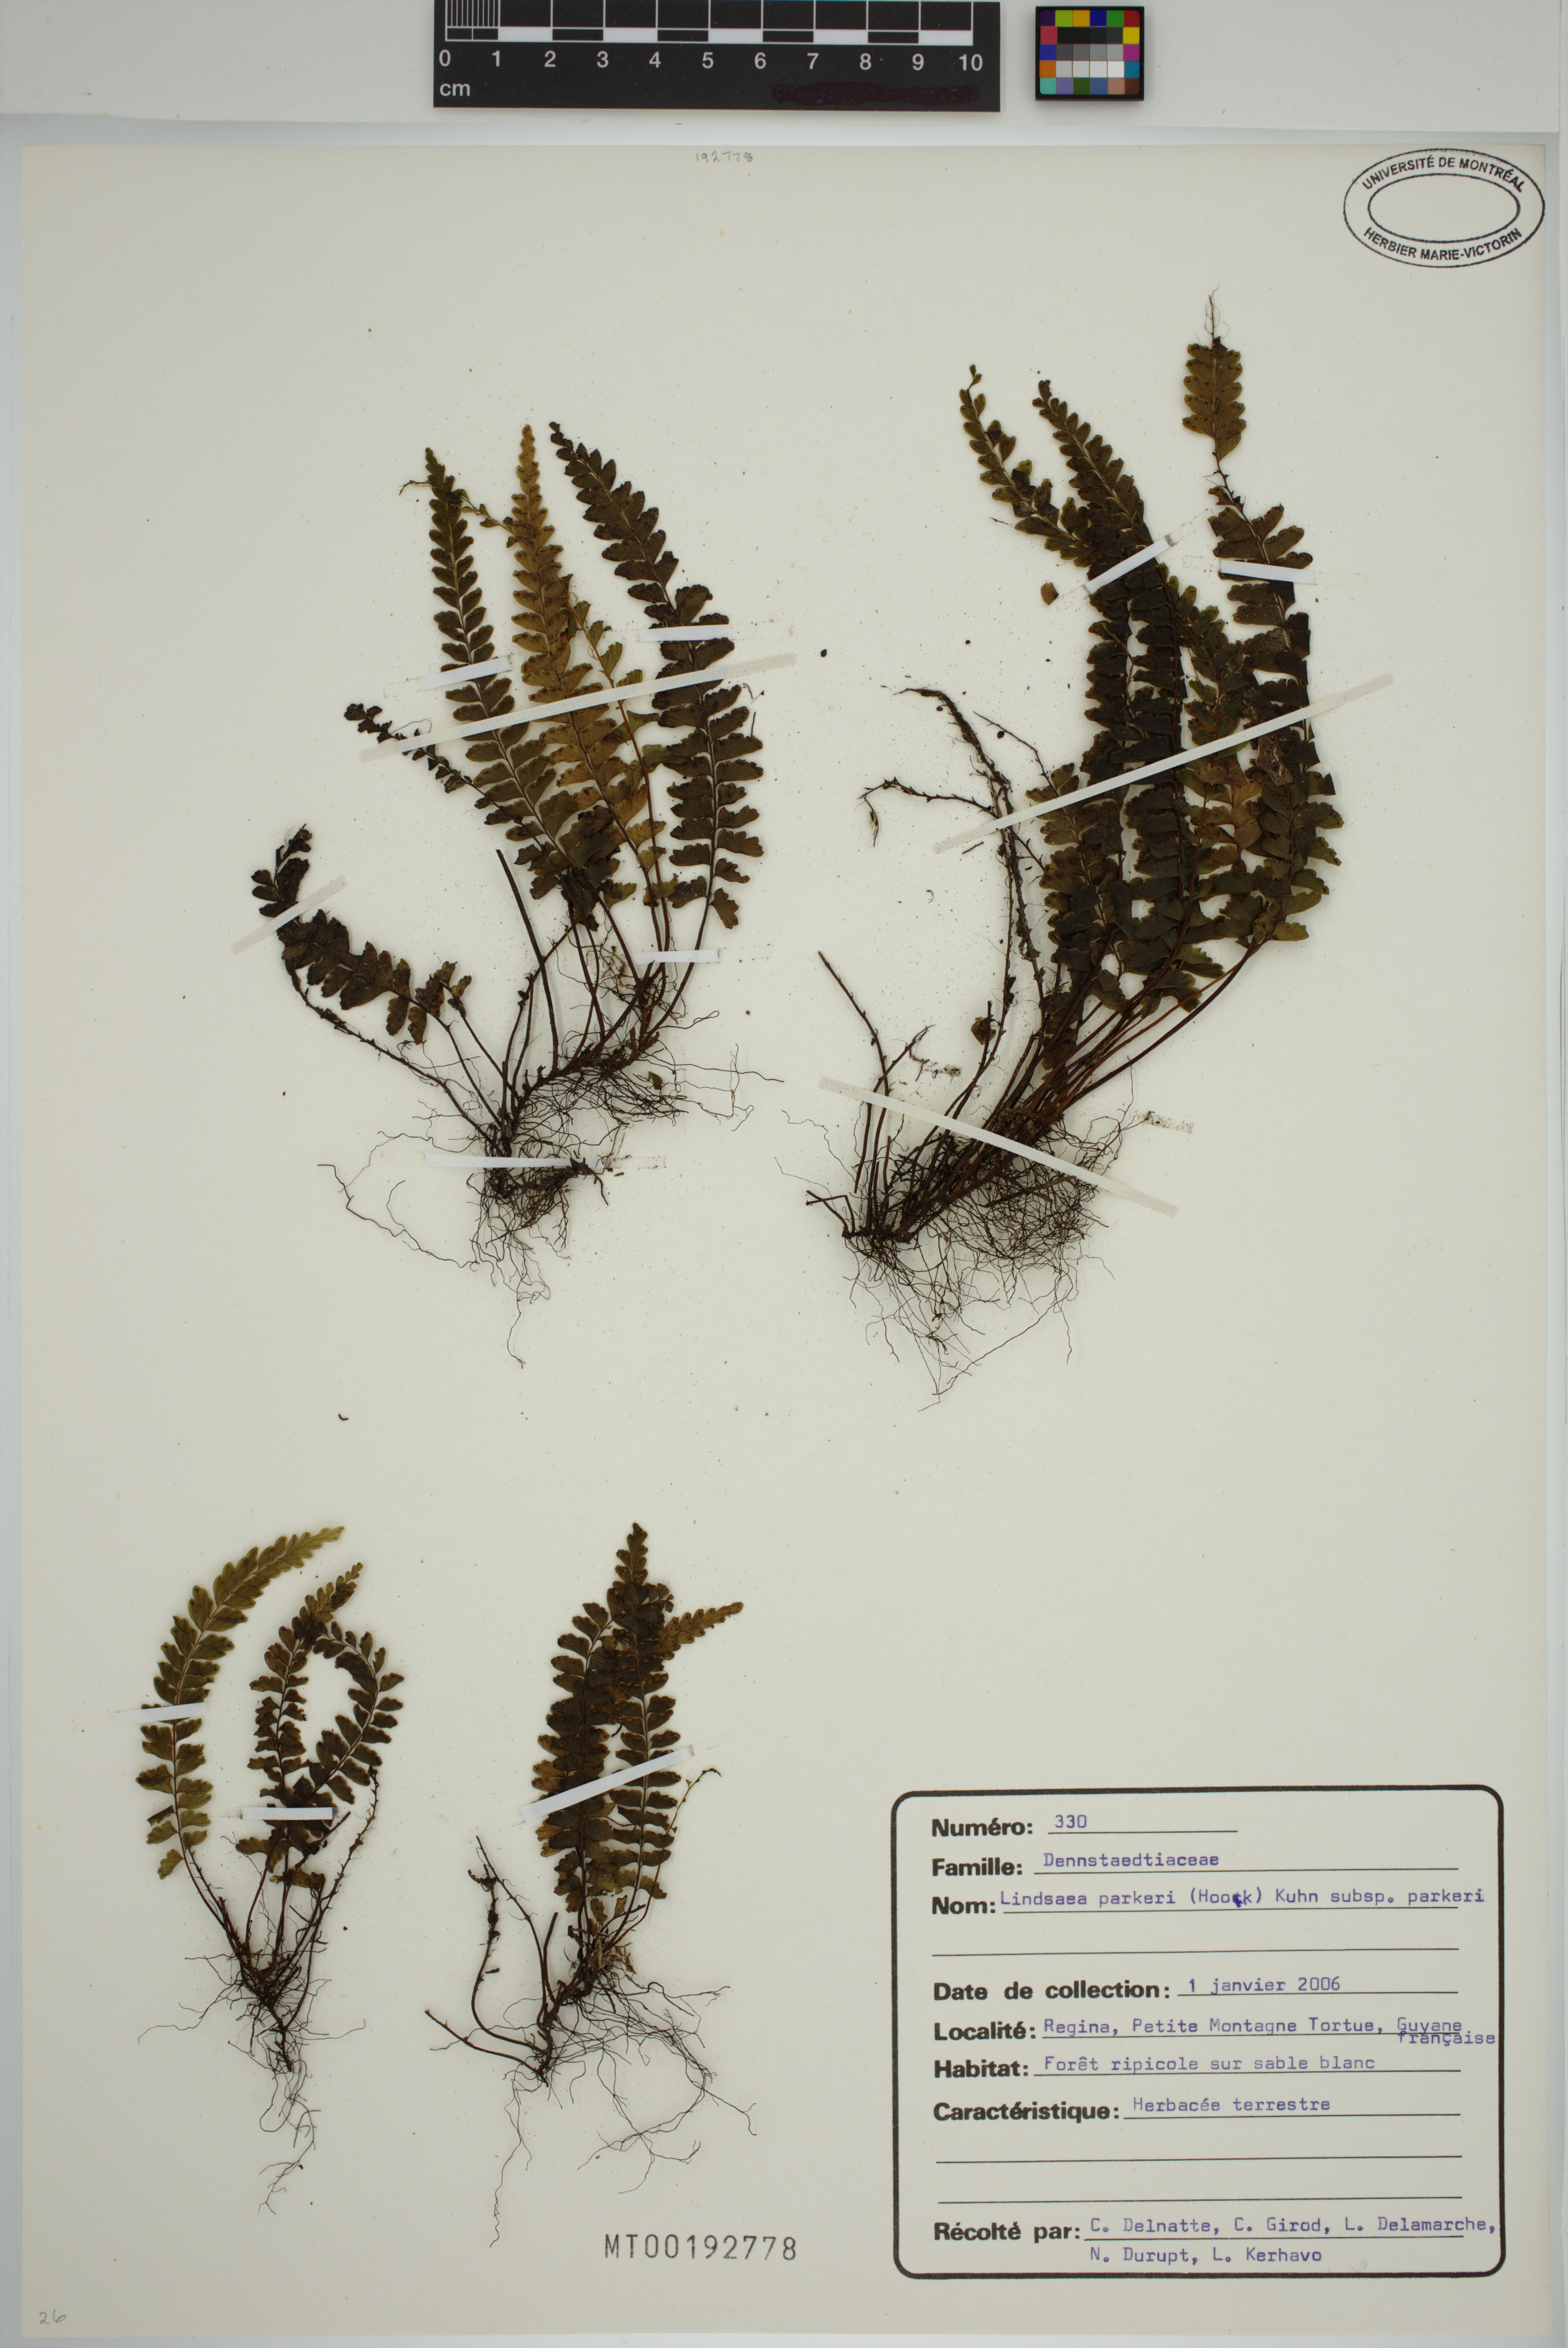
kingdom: Plantae
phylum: Tracheophyta
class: Polypodiopsida
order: Polypodiales
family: Lindsaeaceae
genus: Lindsaea
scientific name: Lindsaea parkeri
